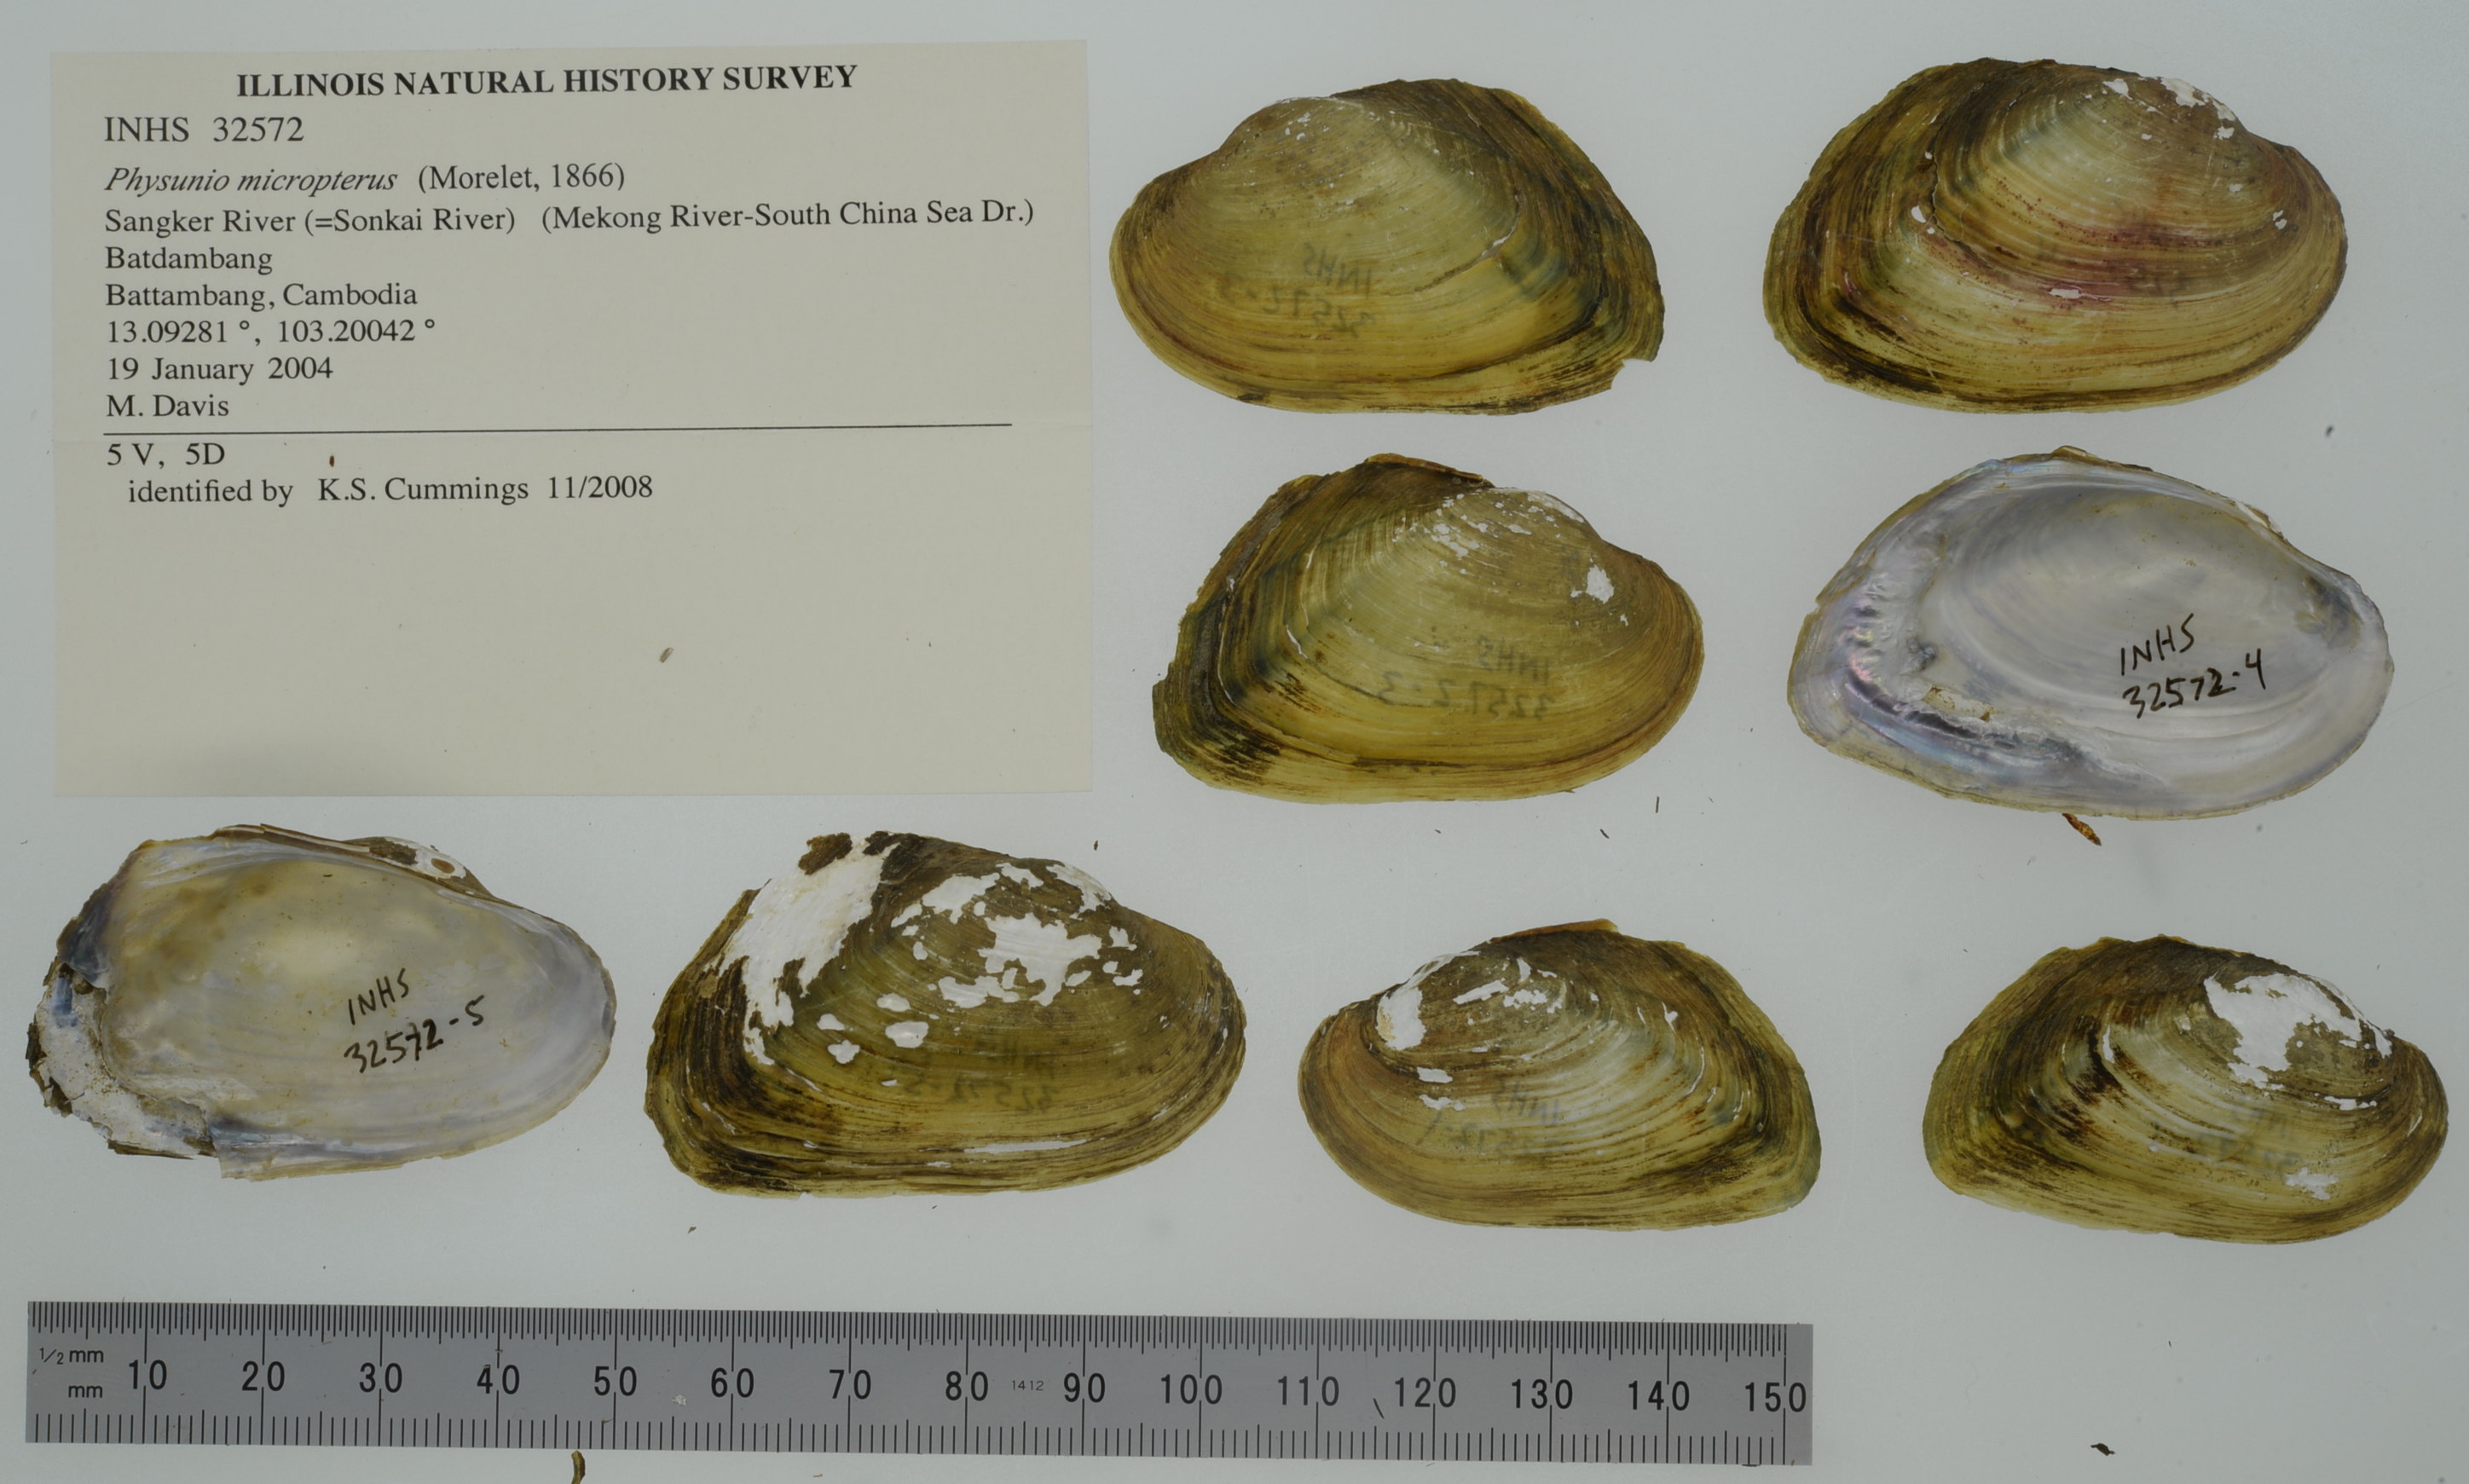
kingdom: Animalia
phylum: Mollusca
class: Bivalvia
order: Unionida
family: Unionidae
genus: Lens
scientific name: Lens micropterus
